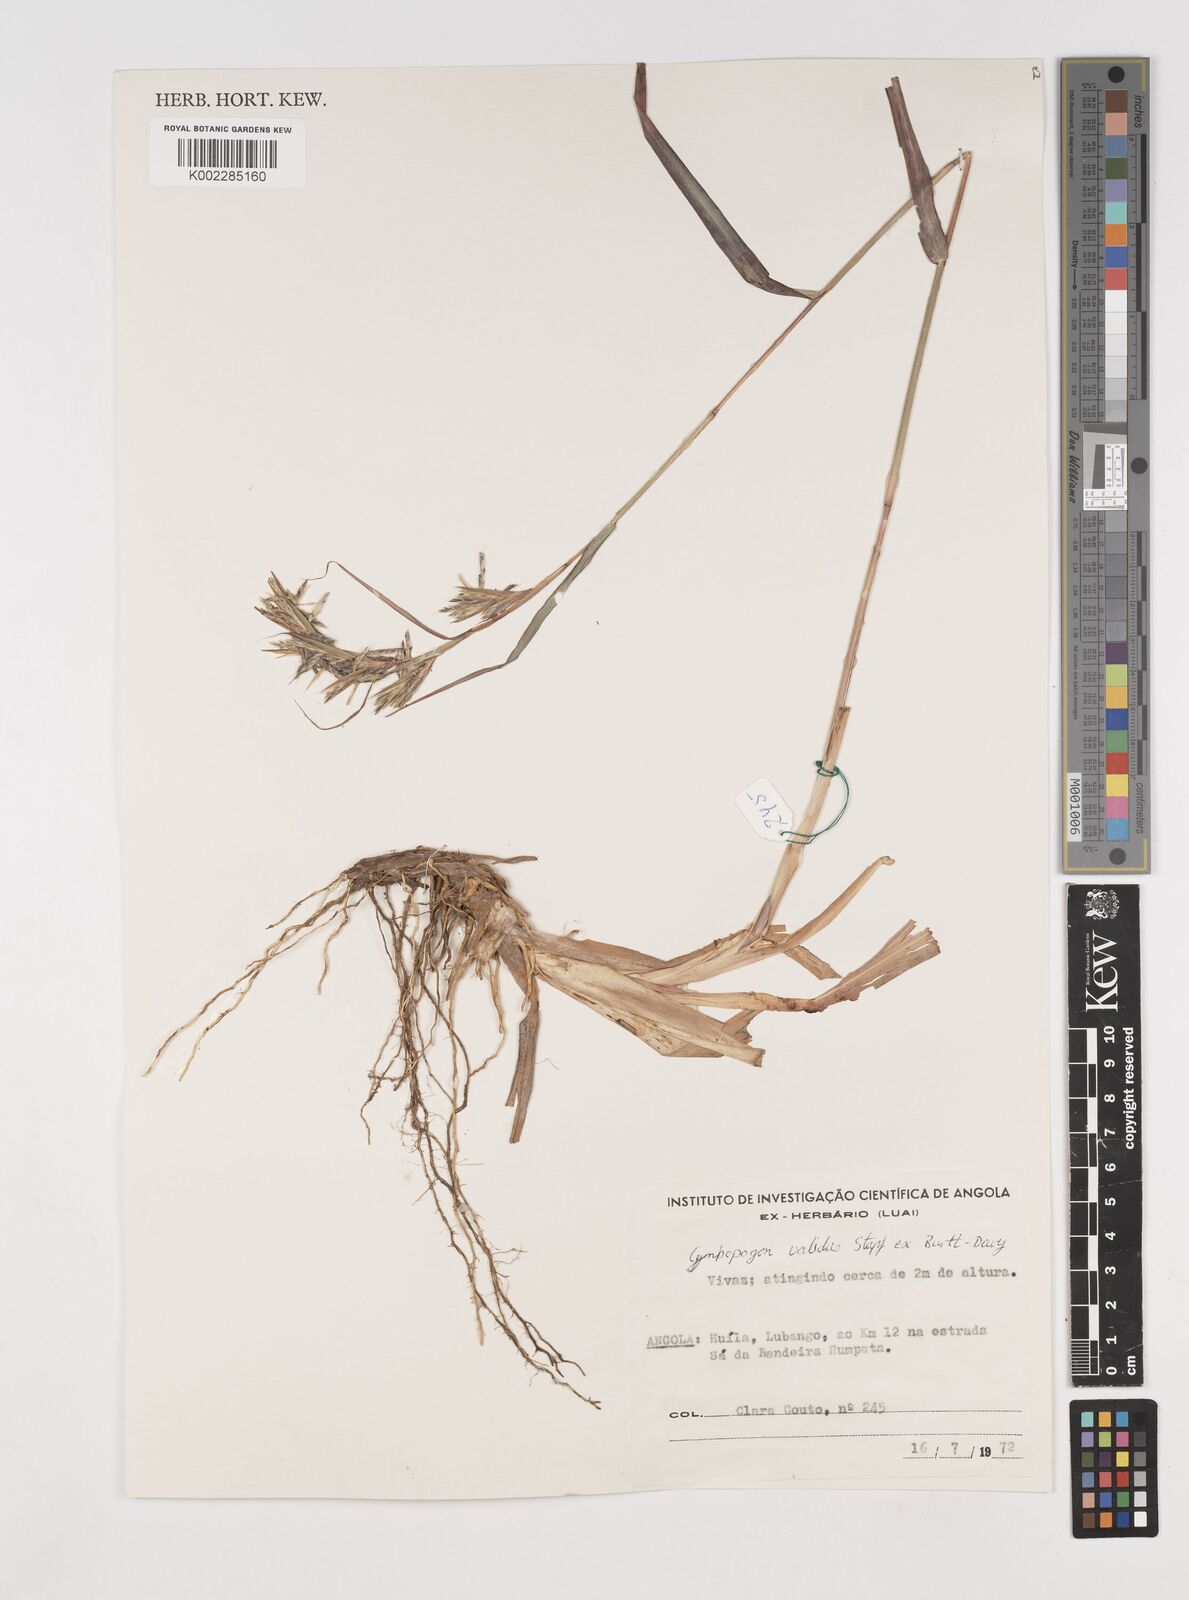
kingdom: Plantae
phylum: Tracheophyta
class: Liliopsida
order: Poales
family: Poaceae
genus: Cymbopogon
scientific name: Cymbopogon giganteus
